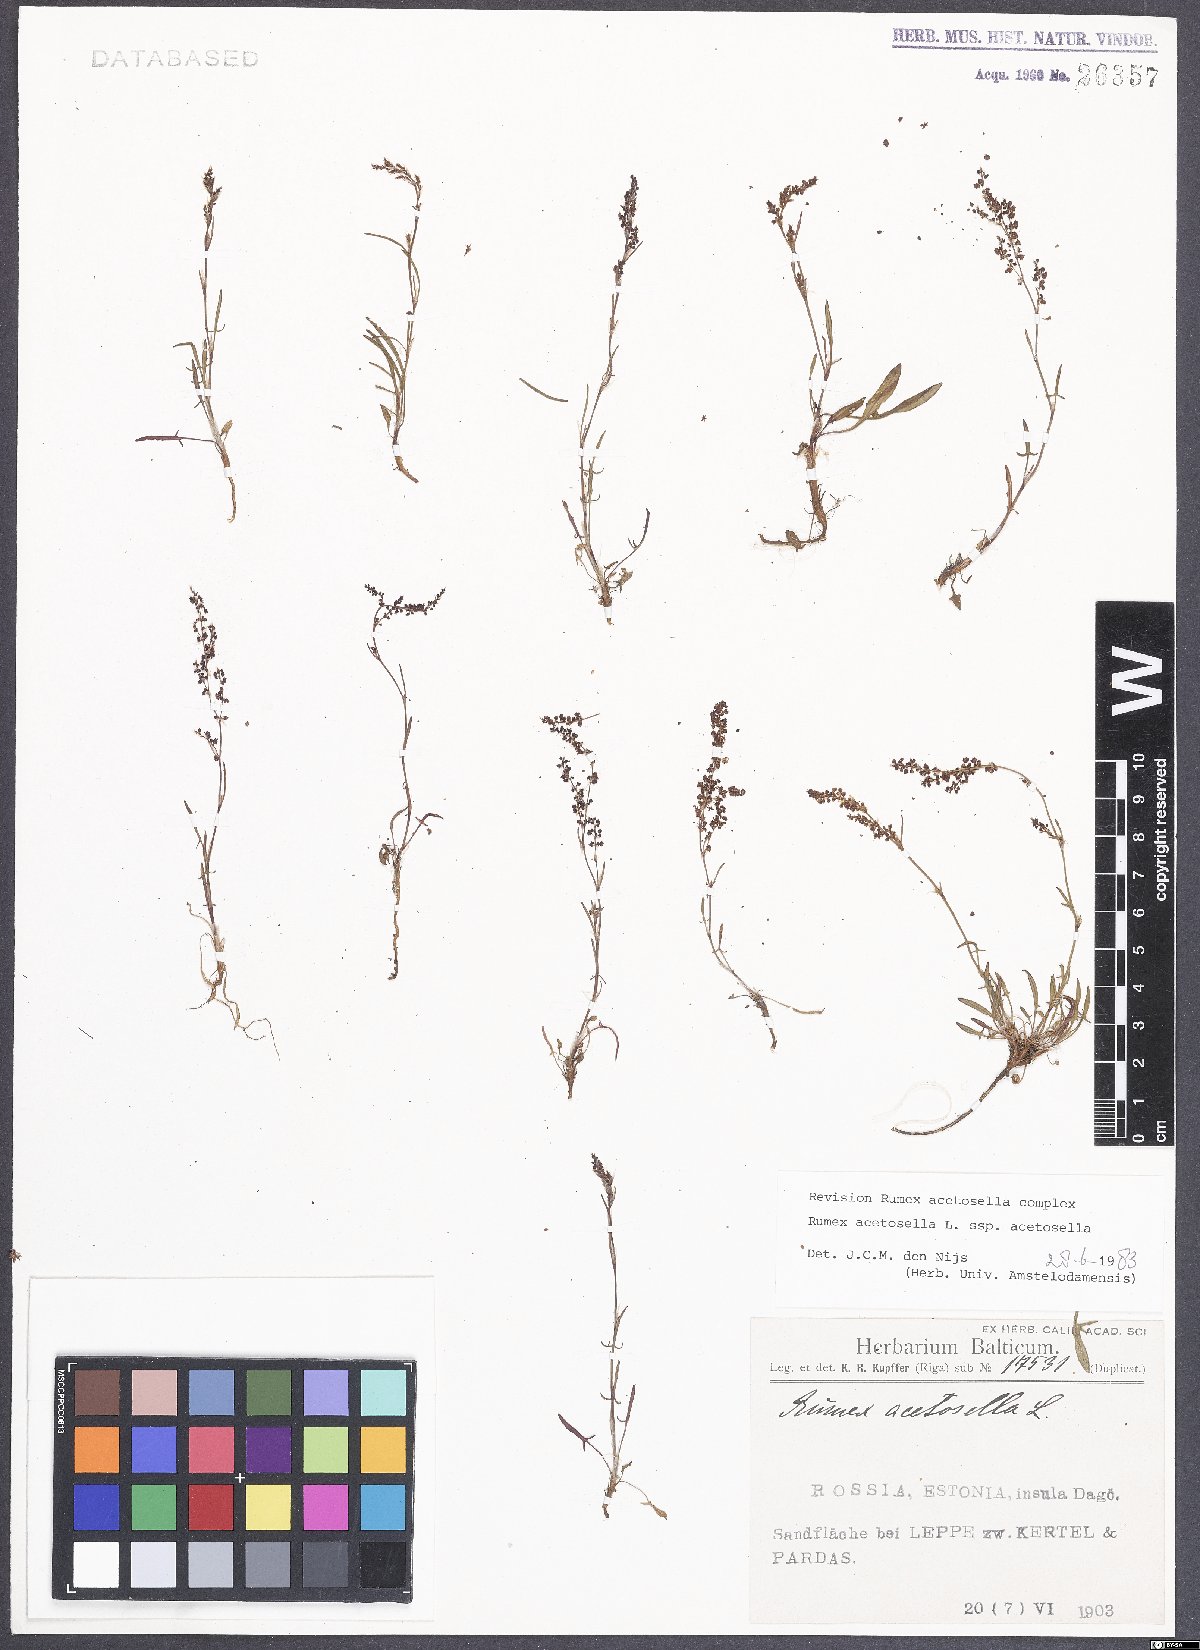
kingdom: Plantae
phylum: Tracheophyta
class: Magnoliopsida
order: Caryophyllales
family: Polygonaceae
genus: Rumex
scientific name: Rumex acetosella
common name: Common sheep sorrel
